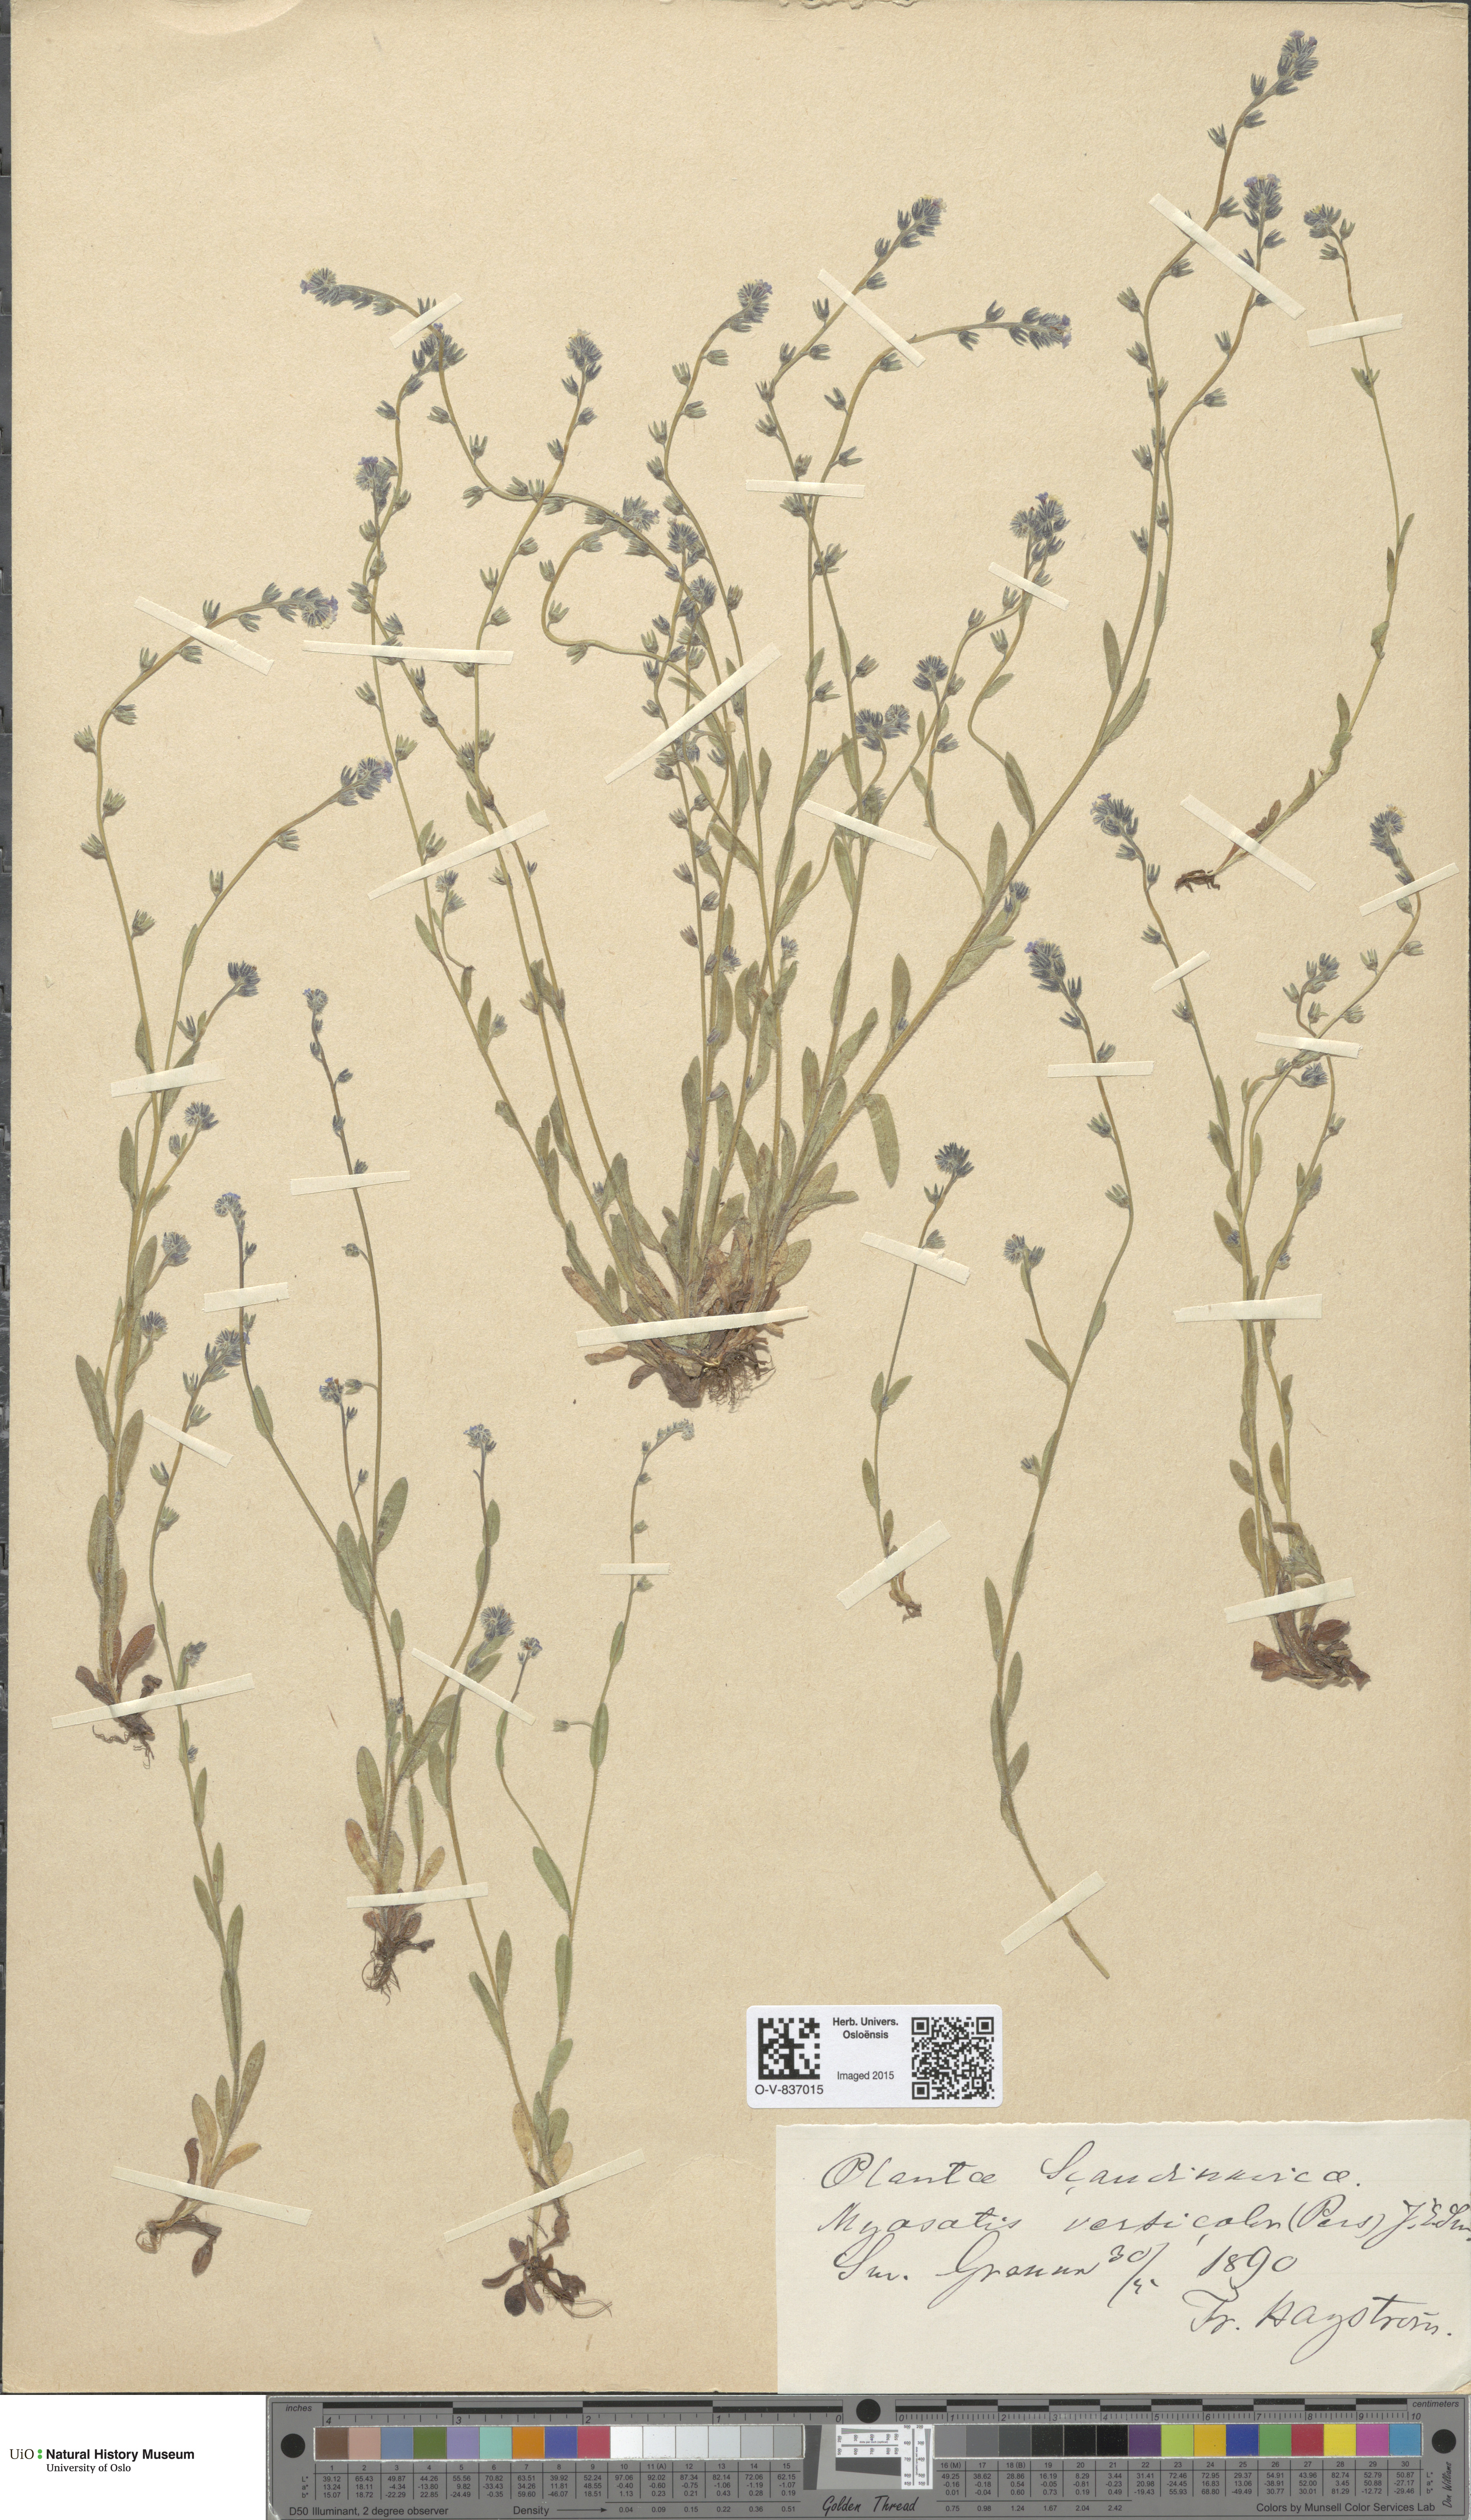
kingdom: Plantae
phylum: Tracheophyta
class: Magnoliopsida
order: Boraginales
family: Boraginaceae
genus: Myosotis
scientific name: Myosotis discolor
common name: Changing forget-me-not
